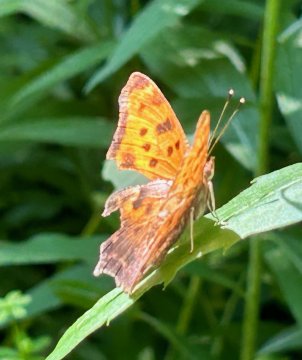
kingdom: Animalia
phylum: Arthropoda
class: Insecta
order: Lepidoptera
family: Nymphalidae
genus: Polygonia
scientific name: Polygonia comma
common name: Eastern Comma
